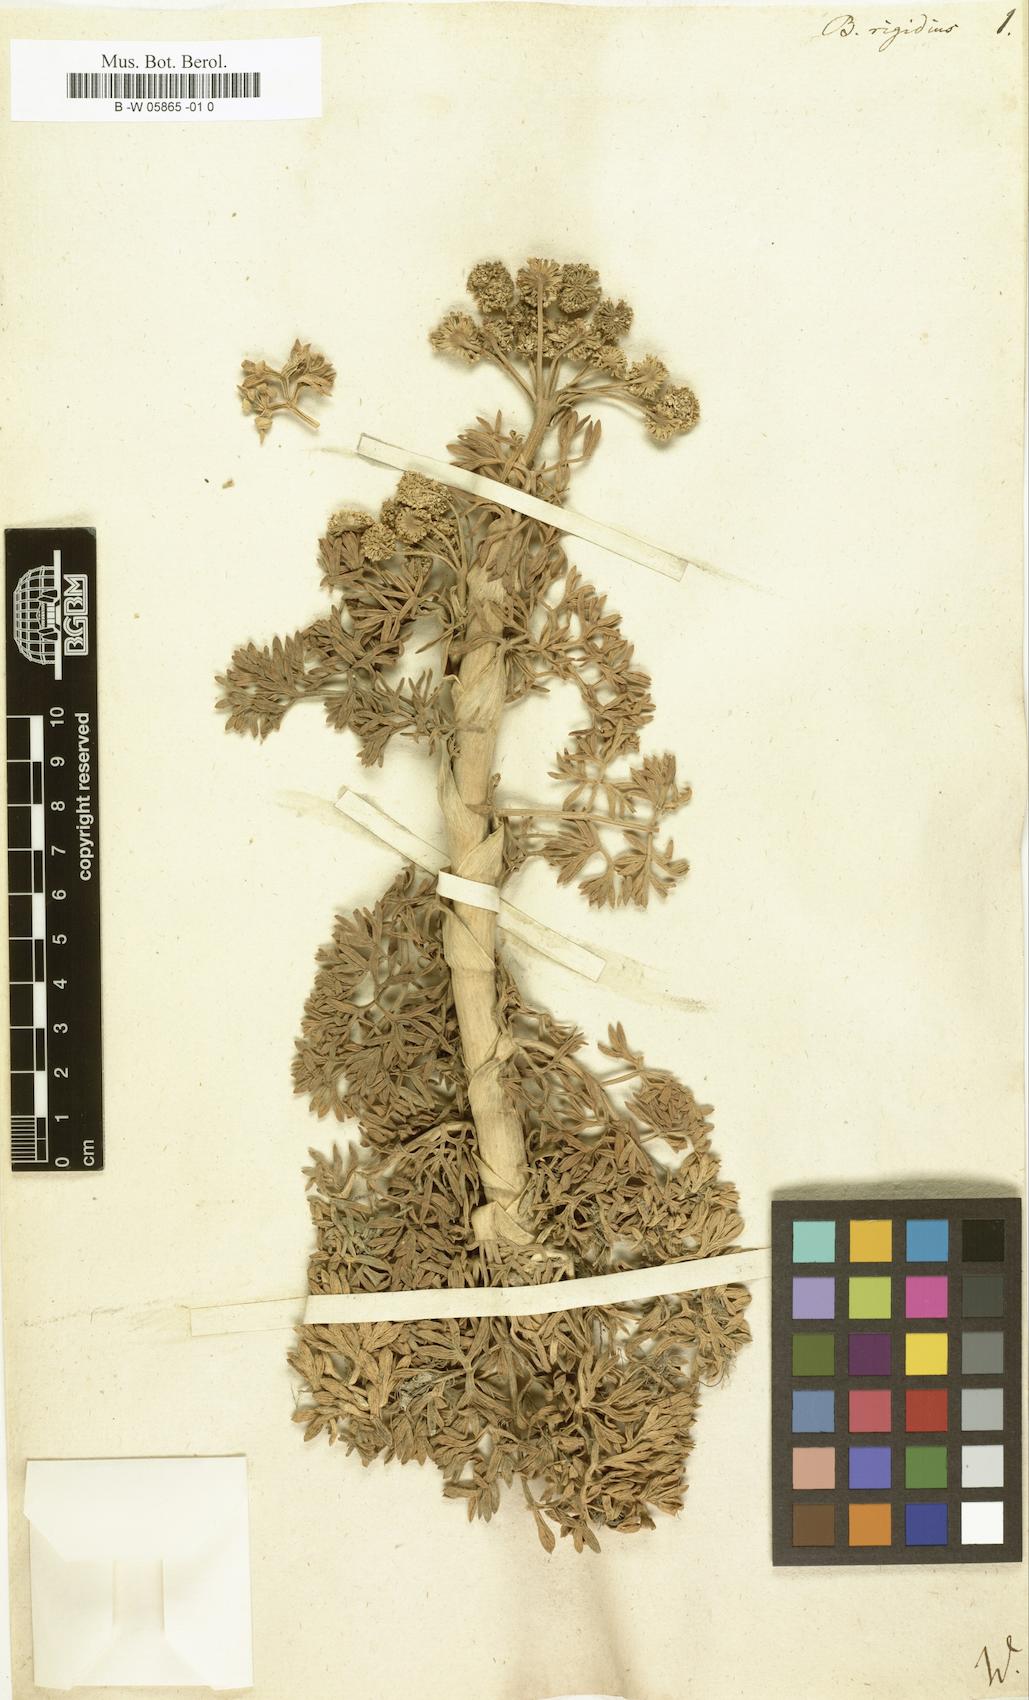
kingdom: Plantae
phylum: Tracheophyta
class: Magnoliopsida
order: Apiales
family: Apiaceae
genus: Ferula
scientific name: Ferula communis
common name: Giant fennel
